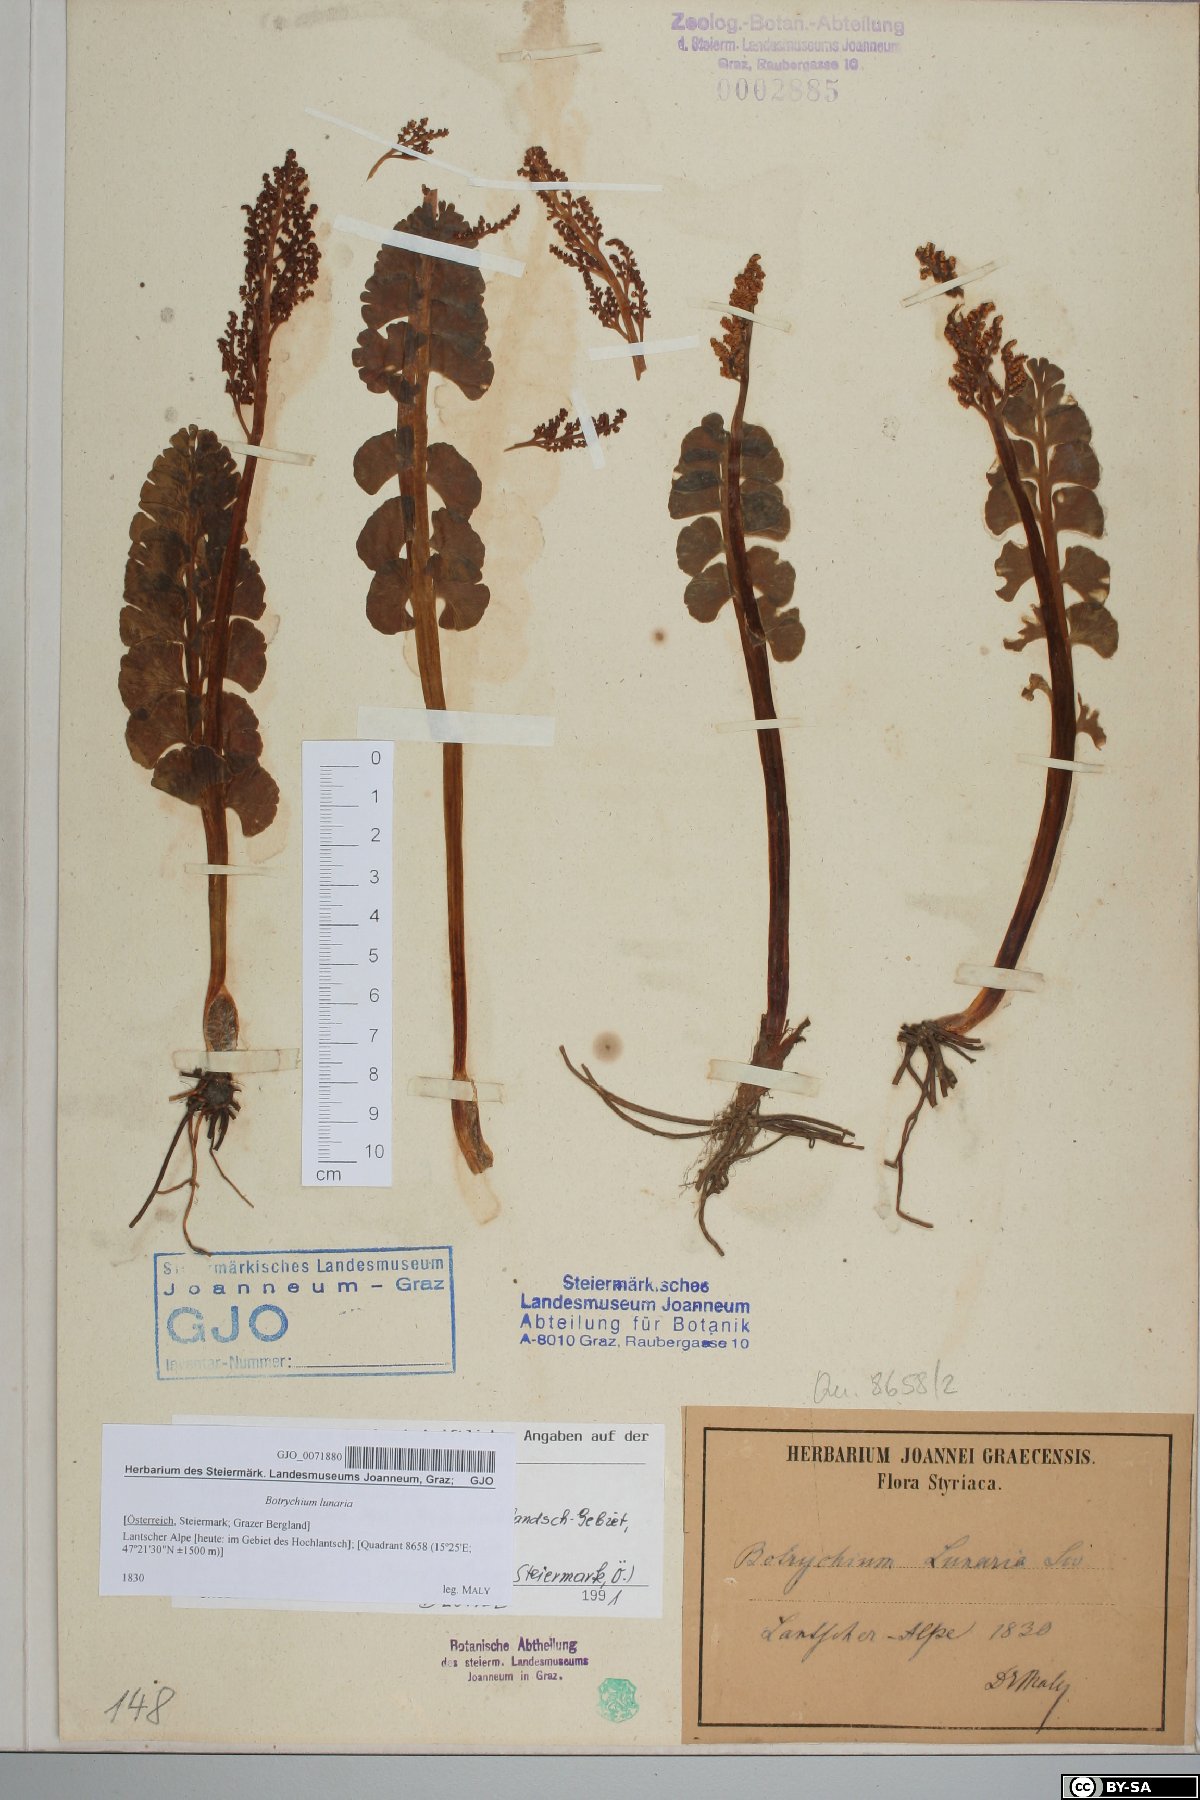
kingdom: Plantae
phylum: Tracheophyta
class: Polypodiopsida
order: Ophioglossales
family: Ophioglossaceae
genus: Botrychium
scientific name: Botrychium lunaria
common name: Moonwort
